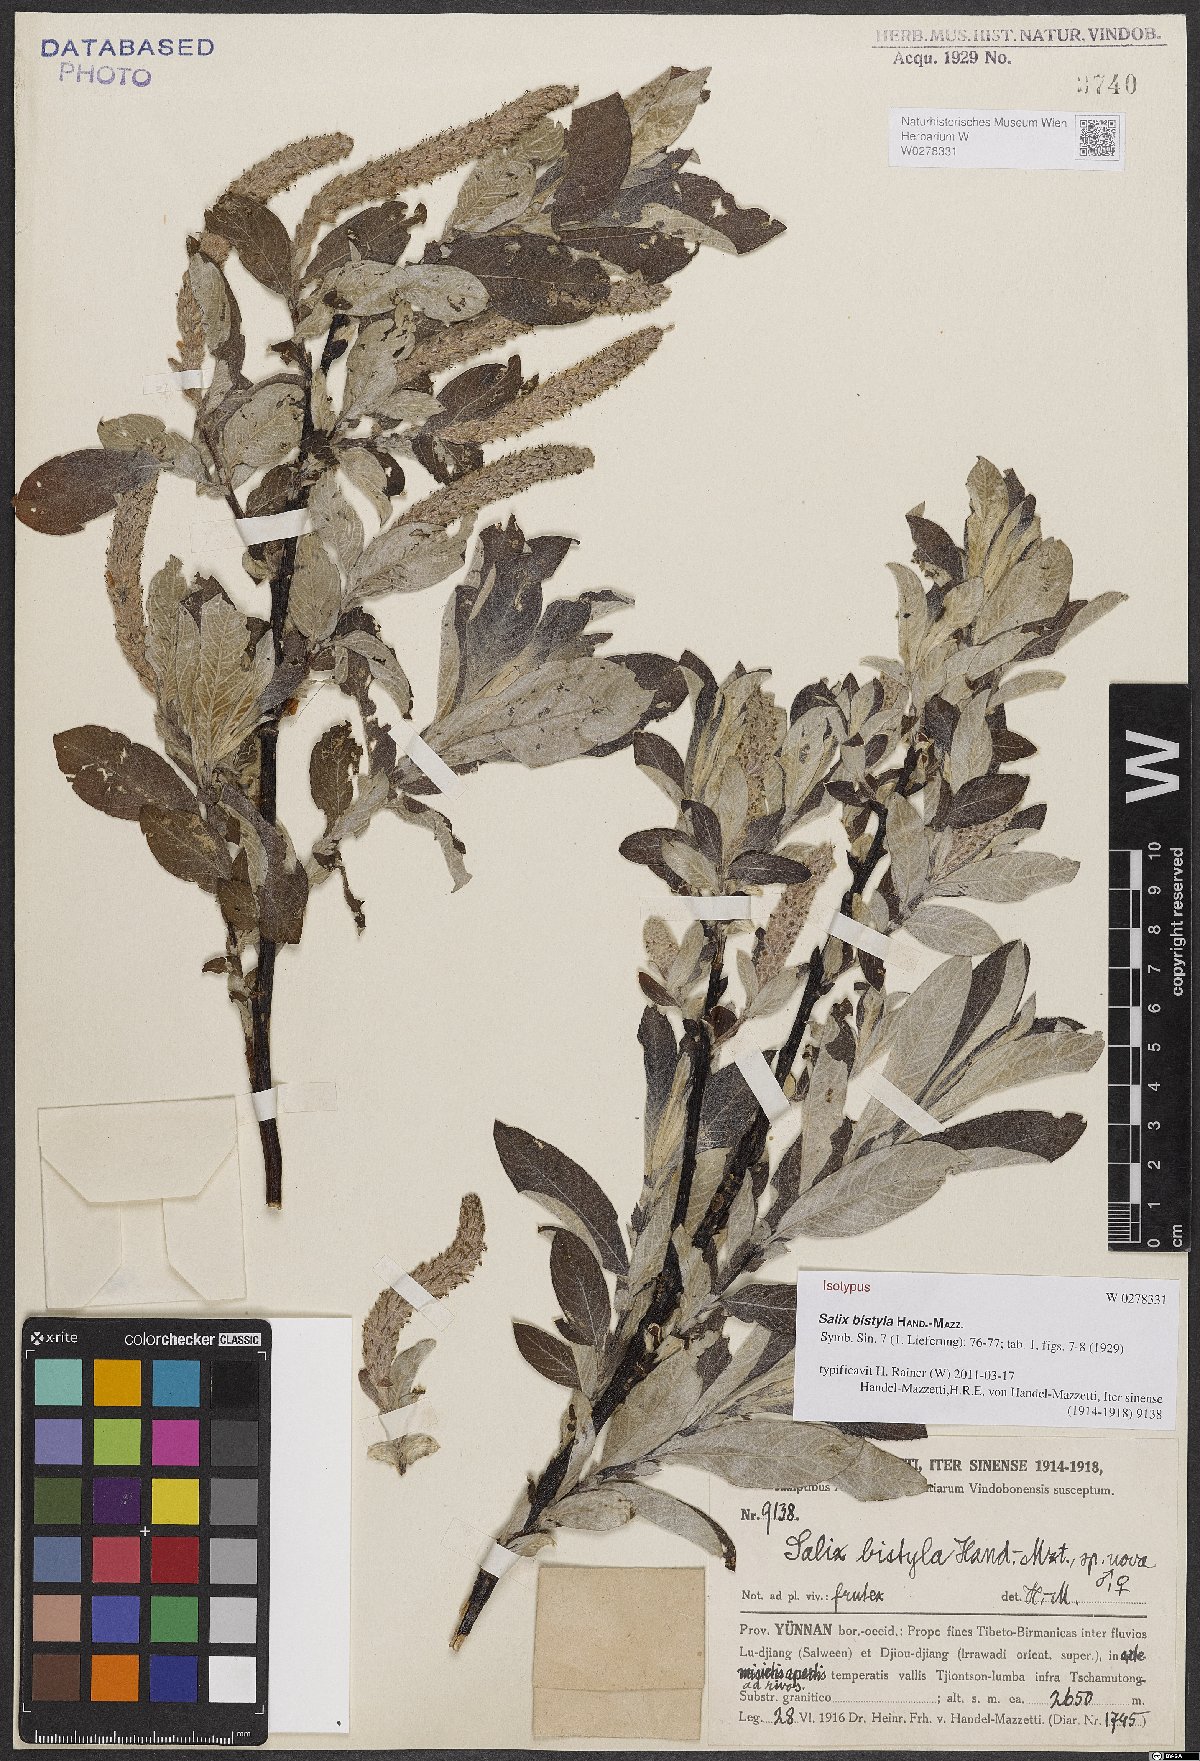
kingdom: Plantae
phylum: Tracheophyta
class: Magnoliopsida
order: Malpighiales
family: Salicaceae
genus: Salix
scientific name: Salix bistyla
